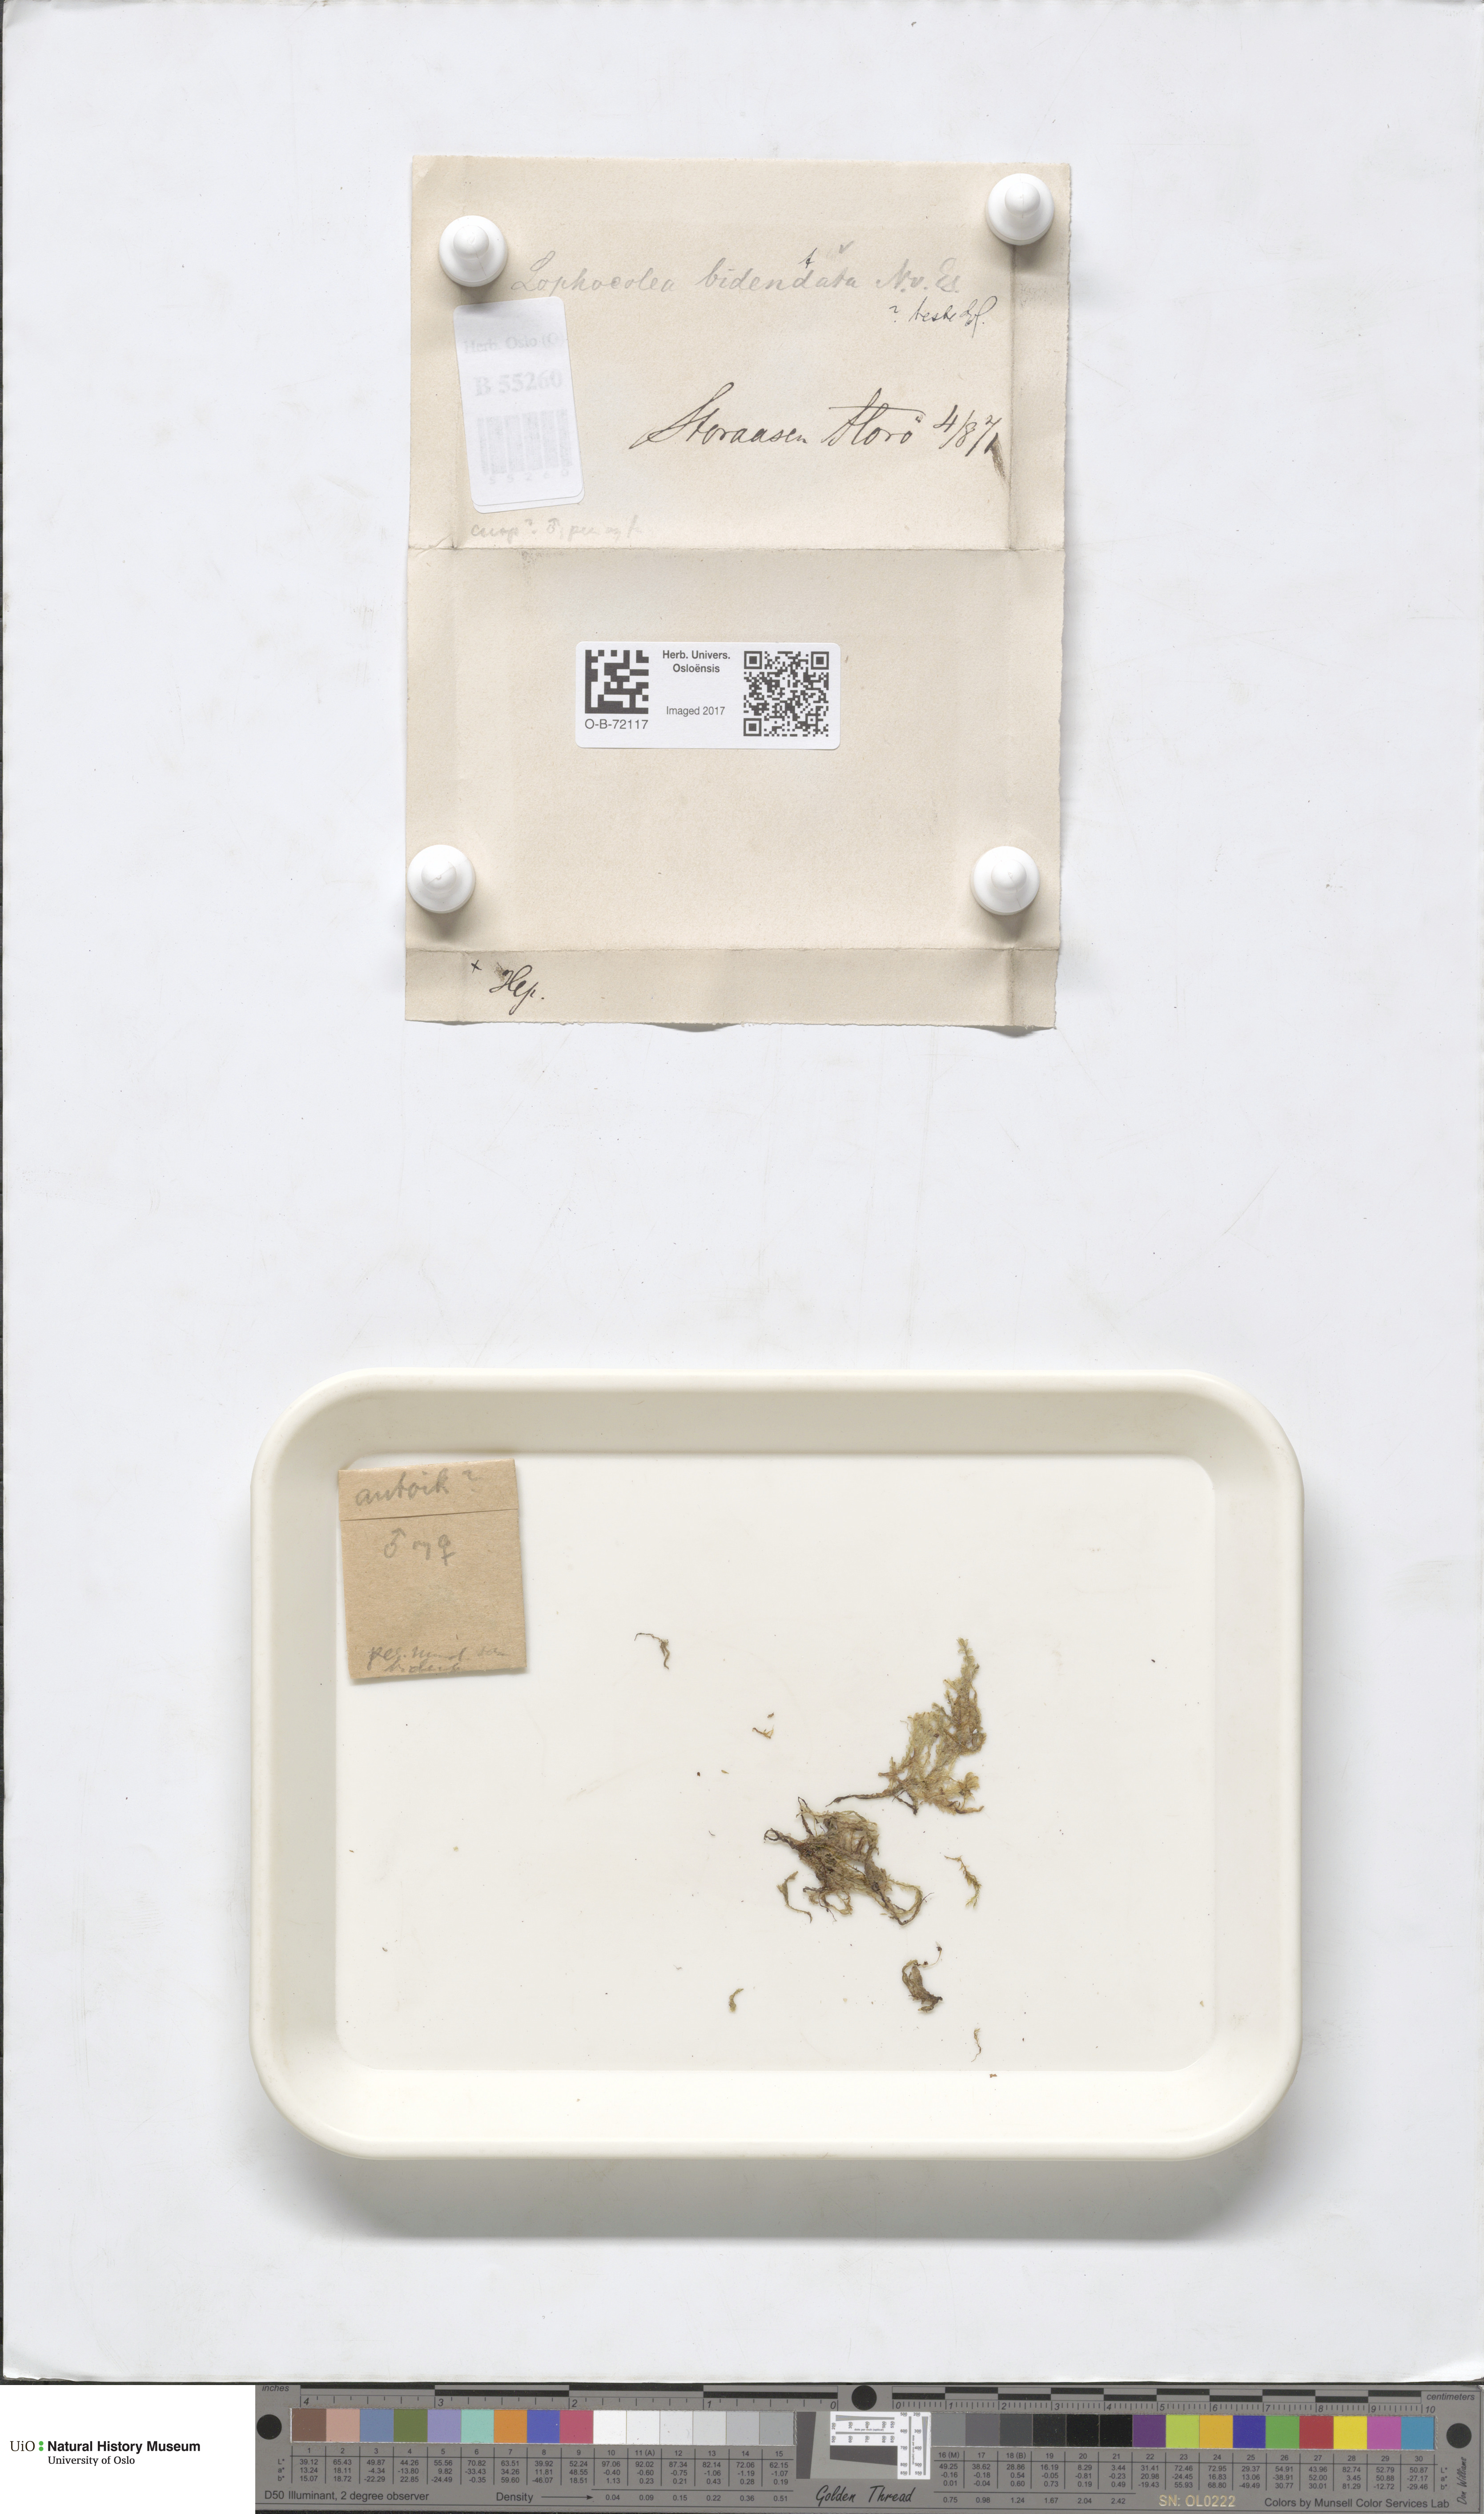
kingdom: Plantae
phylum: Marchantiophyta
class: Jungermanniopsida
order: Jungermanniales
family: Lophocoleaceae
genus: Chiloscyphus
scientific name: Chiloscyphus polyanthos
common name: Square-leaved crestwort
